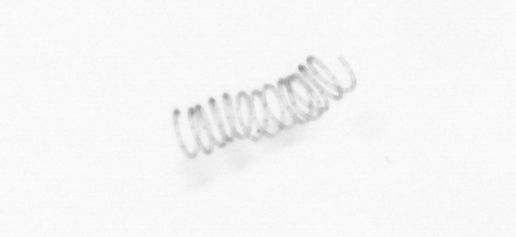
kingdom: Chromista
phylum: Ochrophyta
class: Bacillariophyceae
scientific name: Bacillariophyceae
